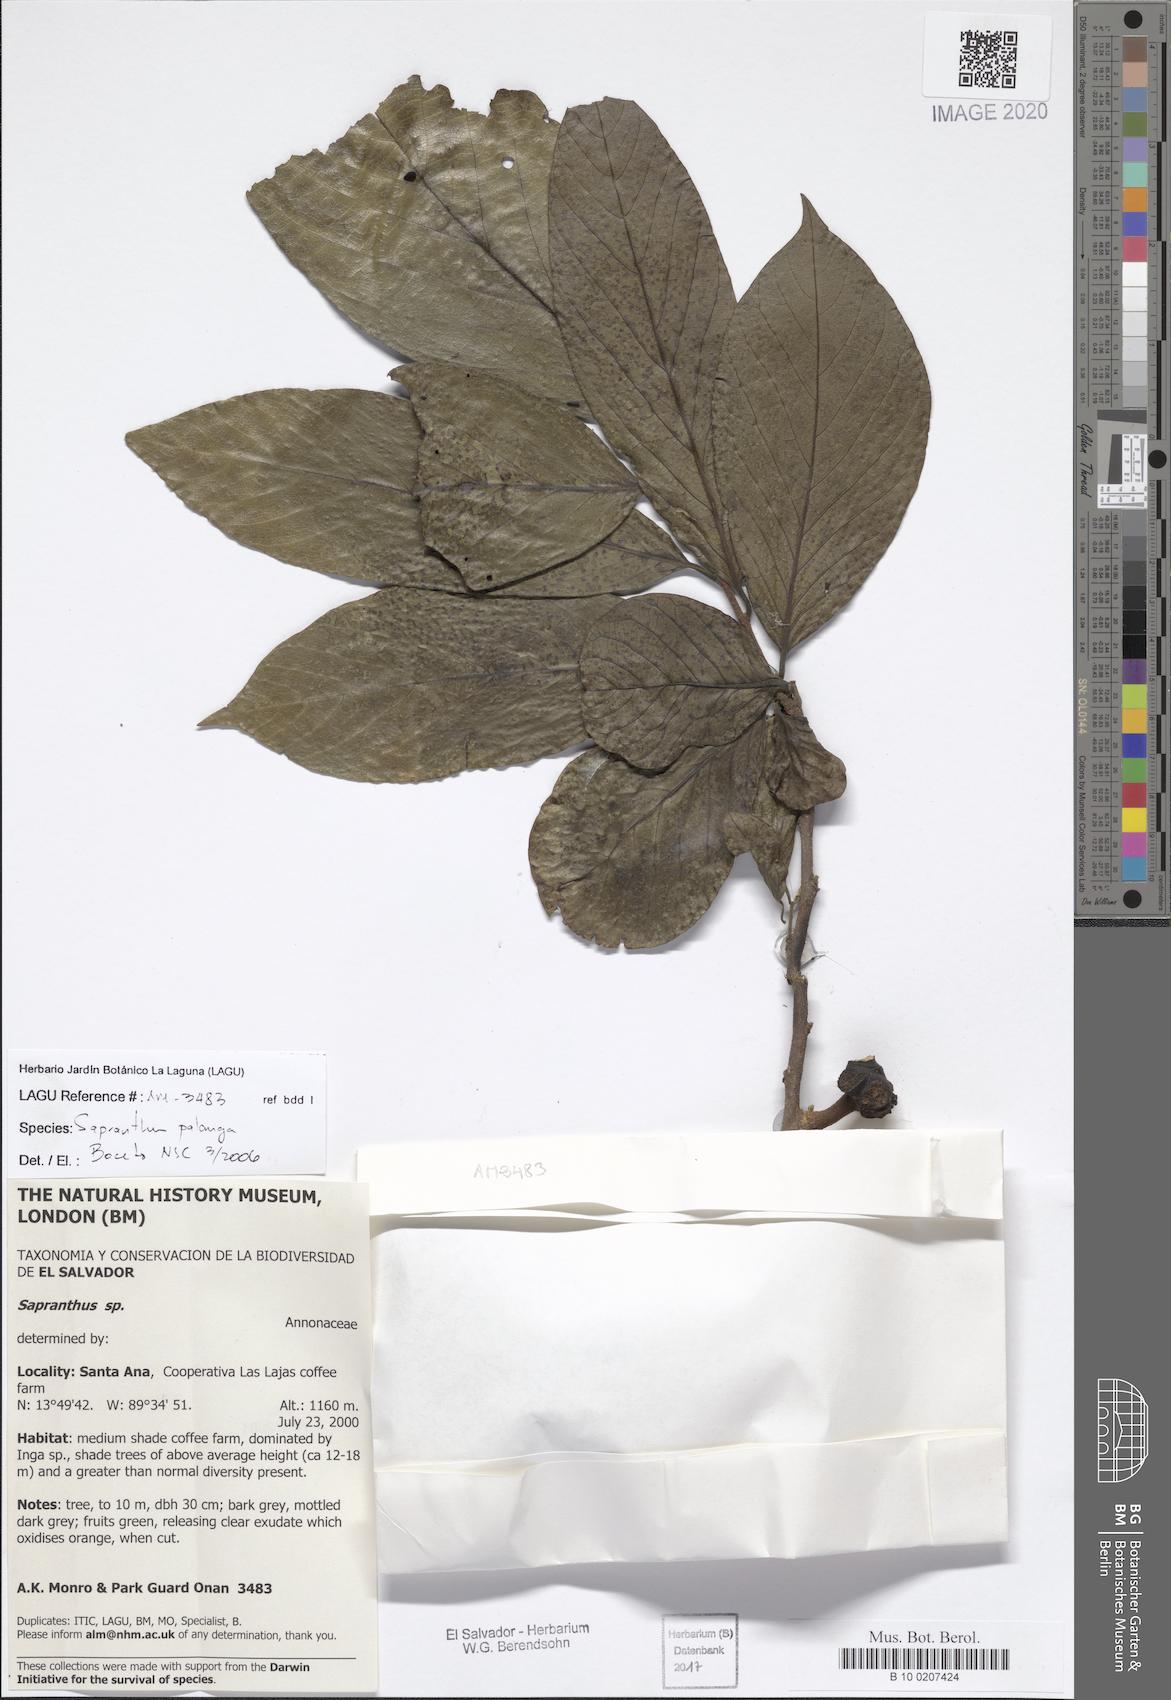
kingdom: Plantae
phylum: Tracheophyta
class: Magnoliopsida
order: Magnoliales
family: Annonaceae
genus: Sapranthus
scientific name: Sapranthus palanga
